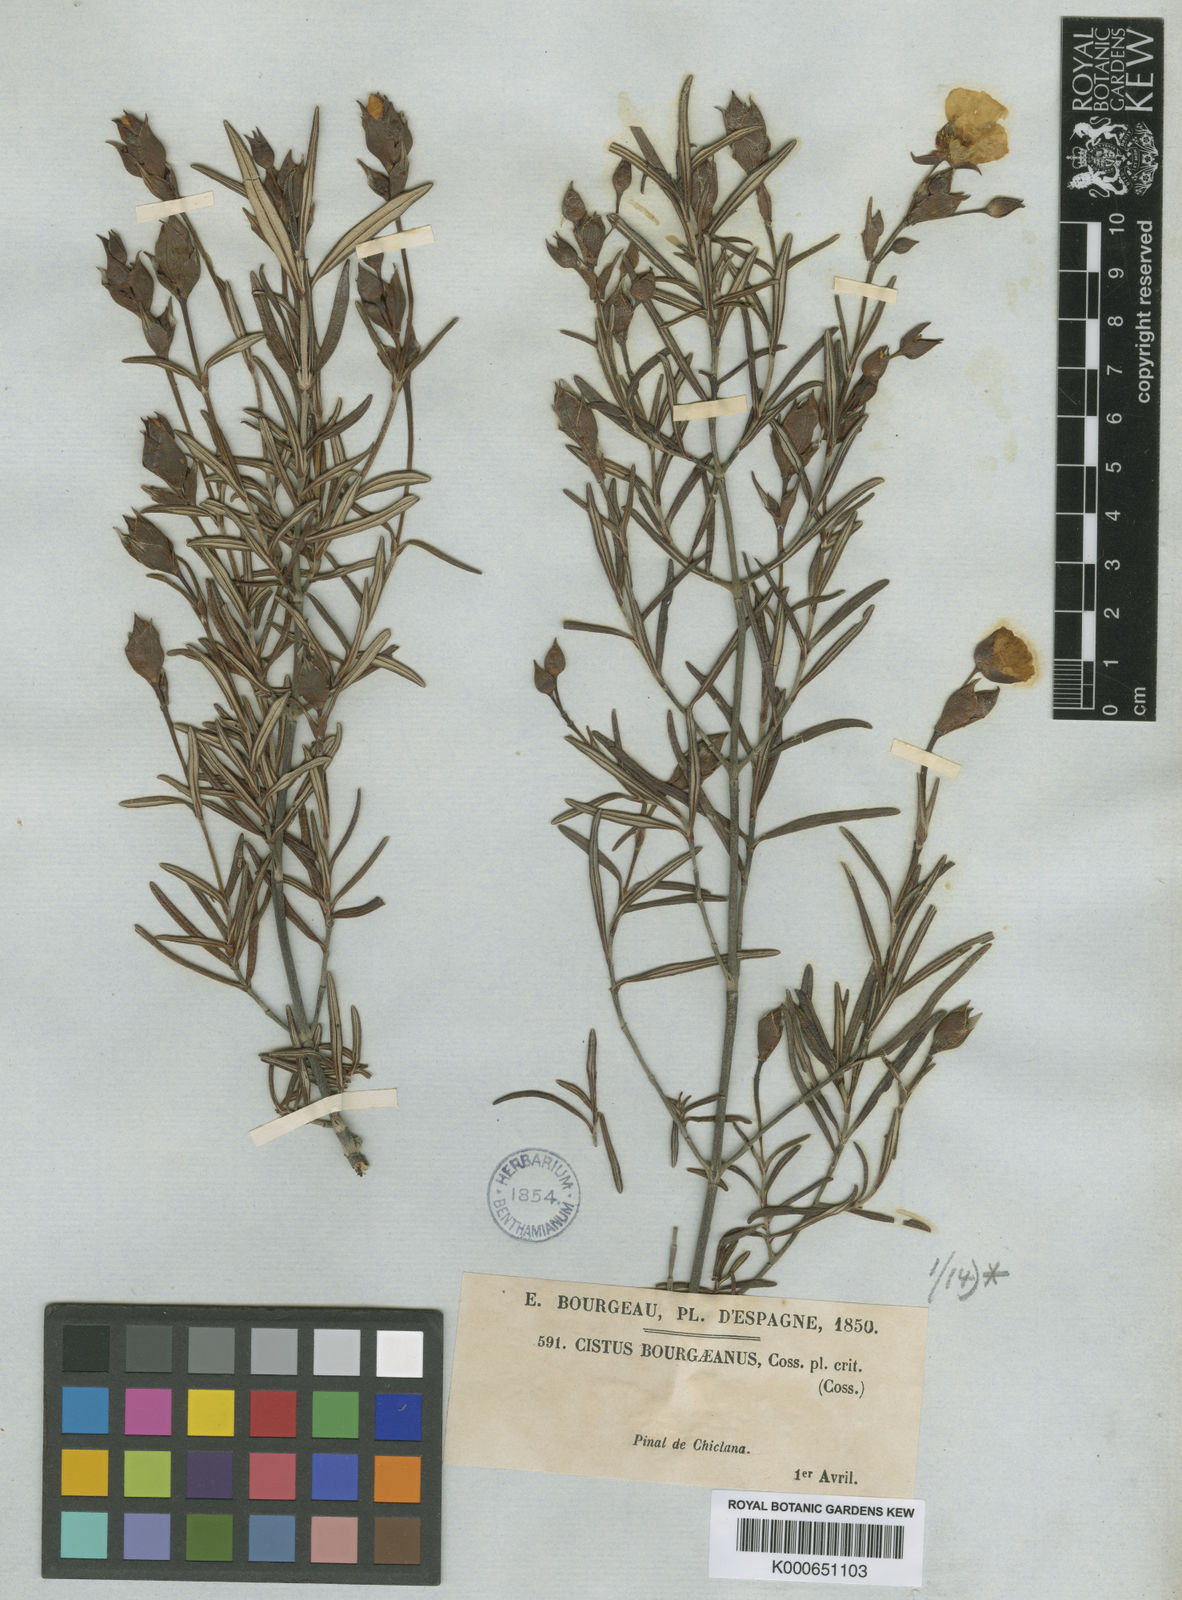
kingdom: Plantae
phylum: Tracheophyta
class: Magnoliopsida
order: Malvales
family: Cistaceae
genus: Cistus
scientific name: Cistus libanotis
